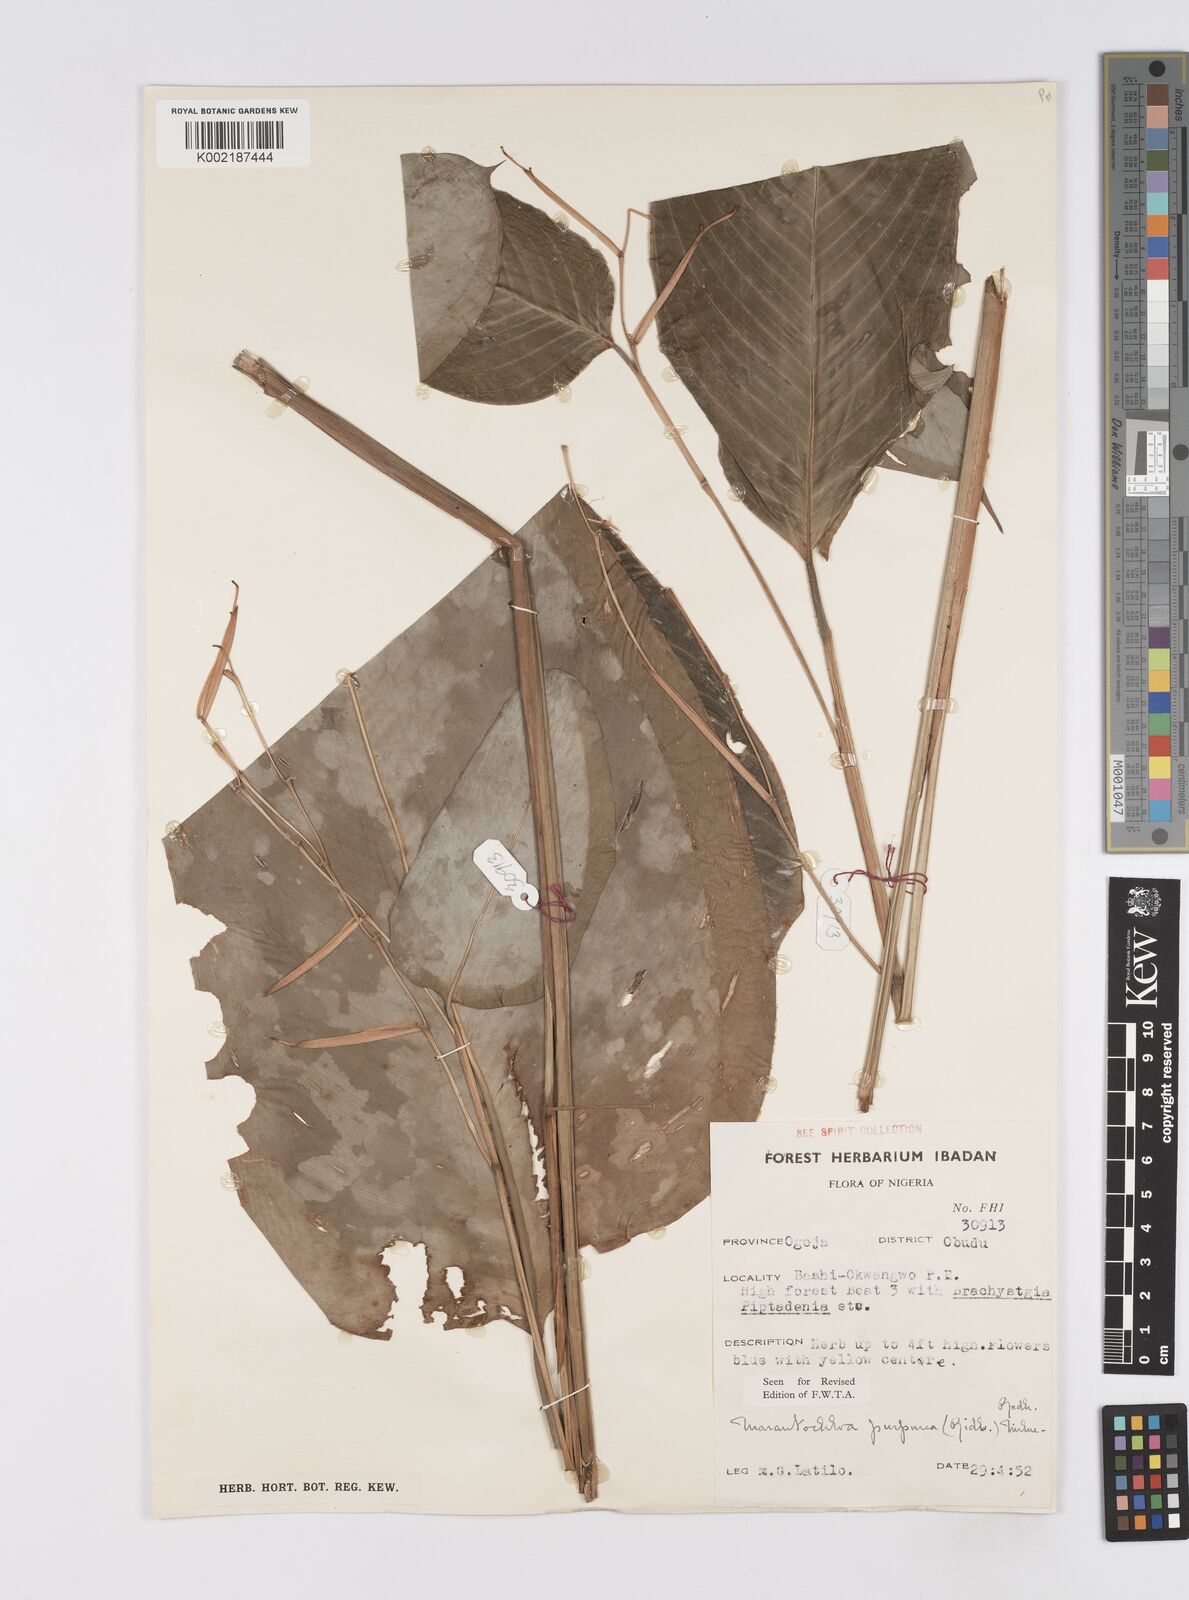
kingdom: Plantae
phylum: Tracheophyta
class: Liliopsida
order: Zingiberales
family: Marantaceae
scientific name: Marantaceae
